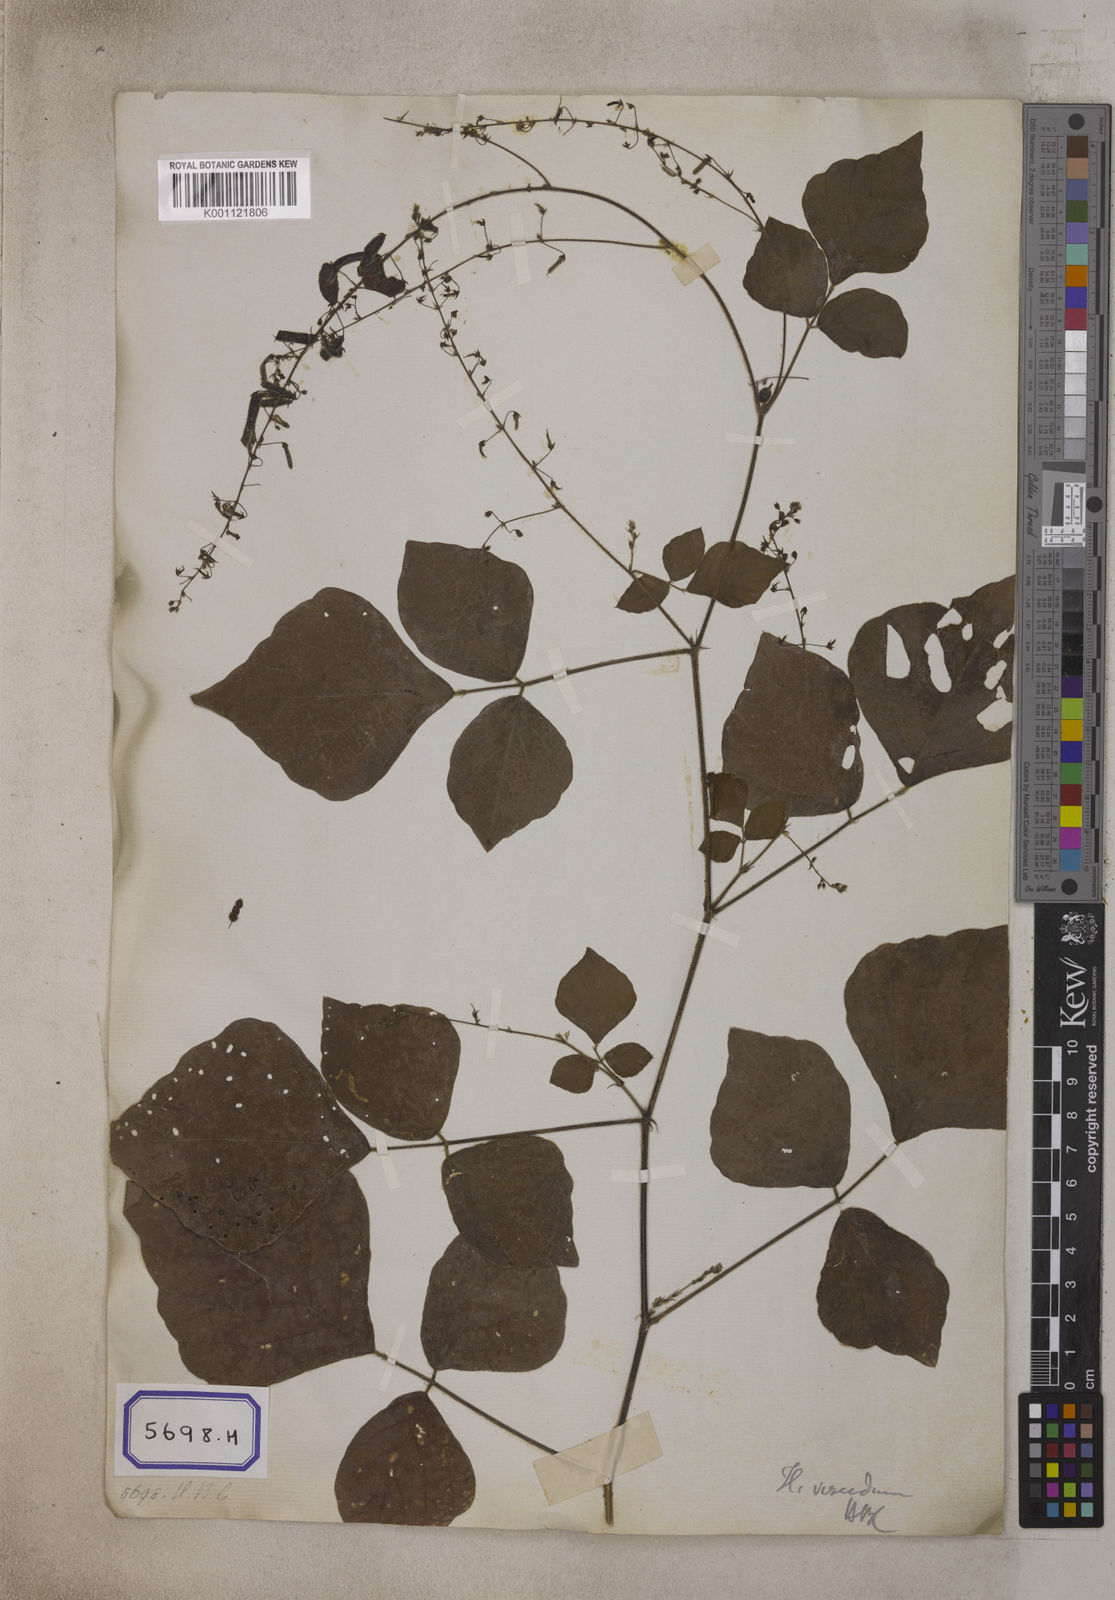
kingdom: Plantae
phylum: Tracheophyta
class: Magnoliopsida
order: Fabales
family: Fabaceae
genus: Pseudarthria
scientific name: Pseudarthria viscida
